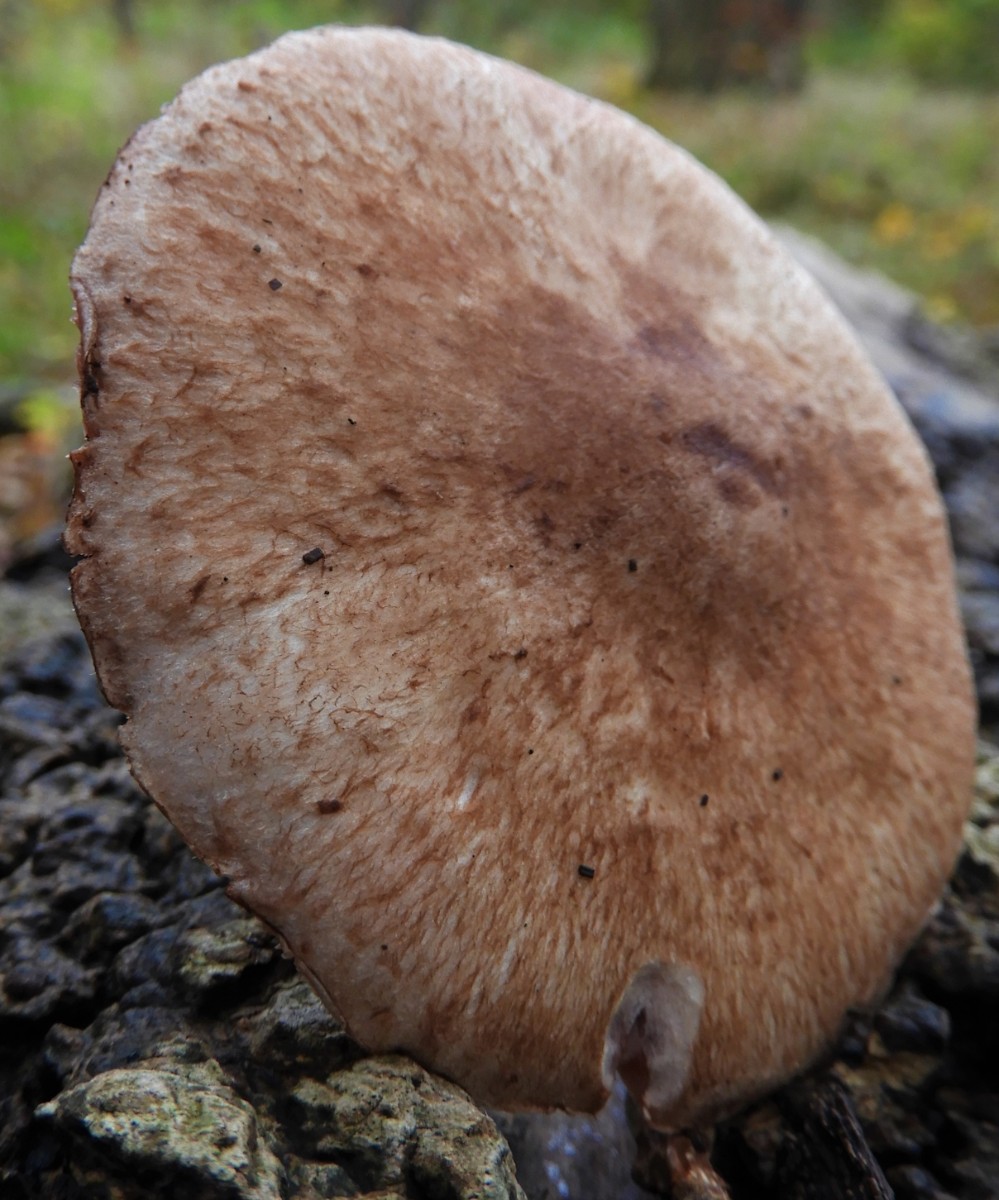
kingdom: Fungi
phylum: Basidiomycota
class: Agaricomycetes
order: Agaricales
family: Agaricaceae
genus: Agaricus
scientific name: Agaricus
